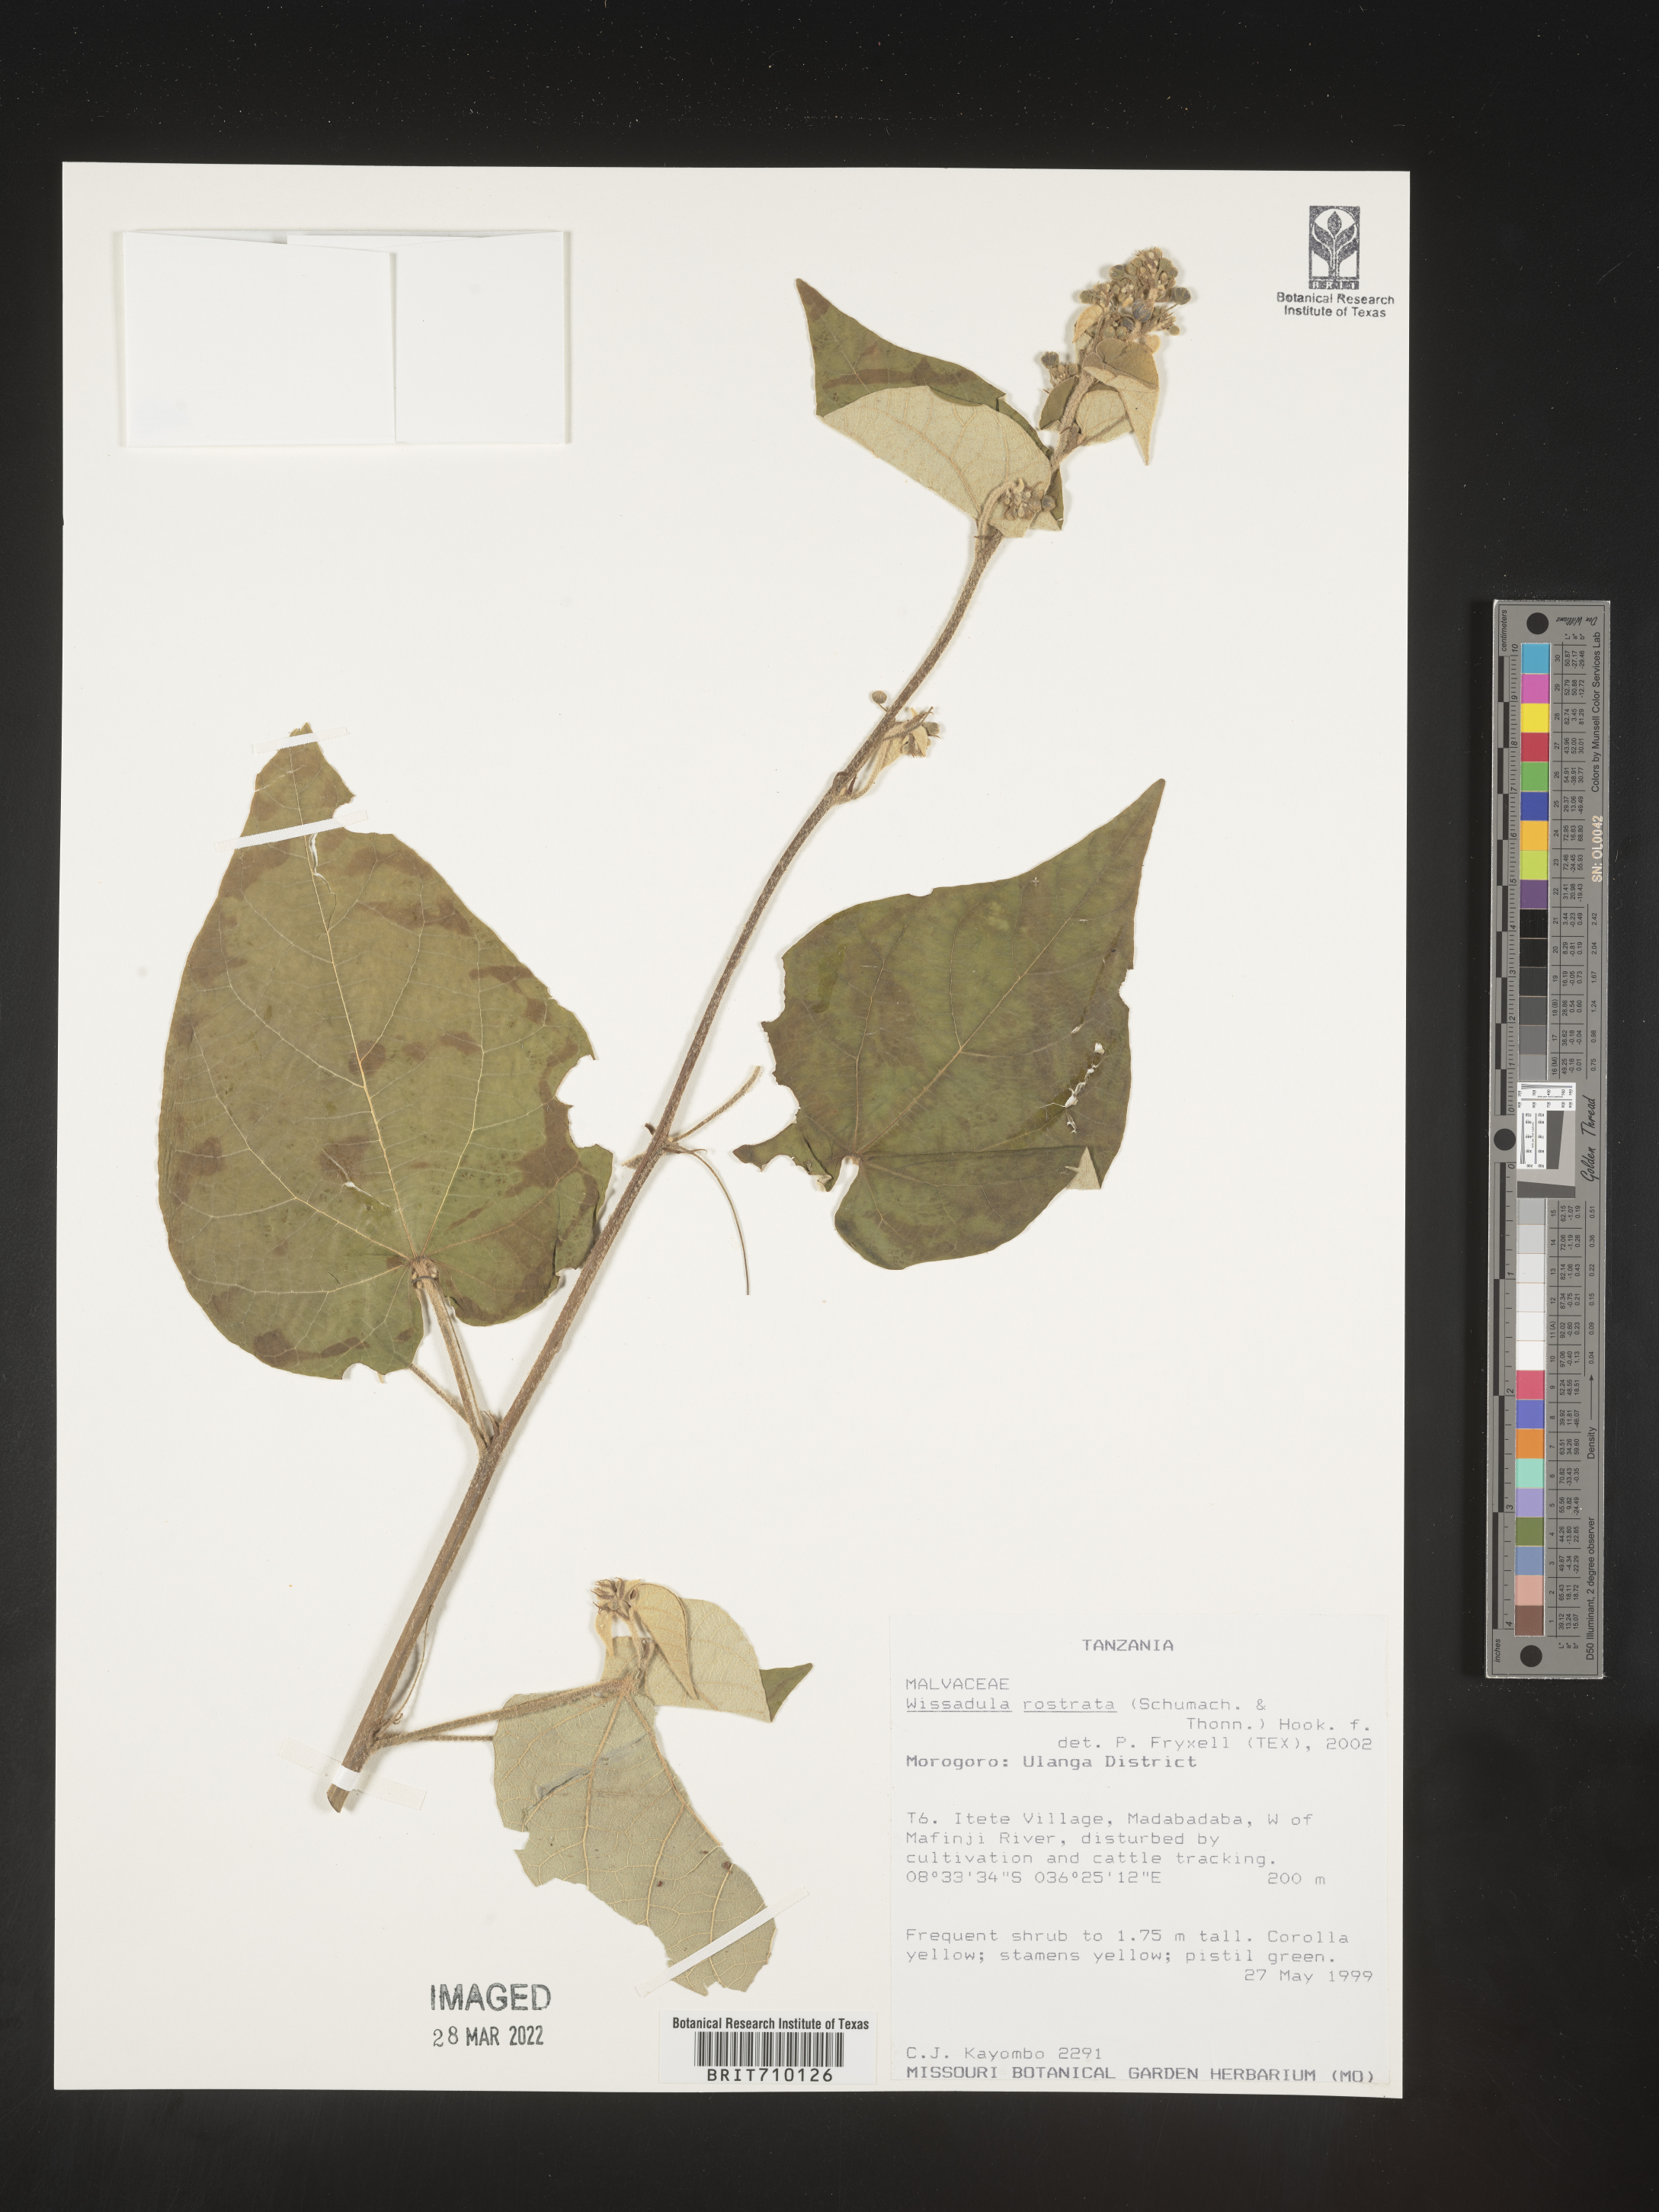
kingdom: Plantae
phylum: Tracheophyta
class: Magnoliopsida
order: Malvales
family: Malvaceae
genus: Wissadula
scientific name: Wissadula
